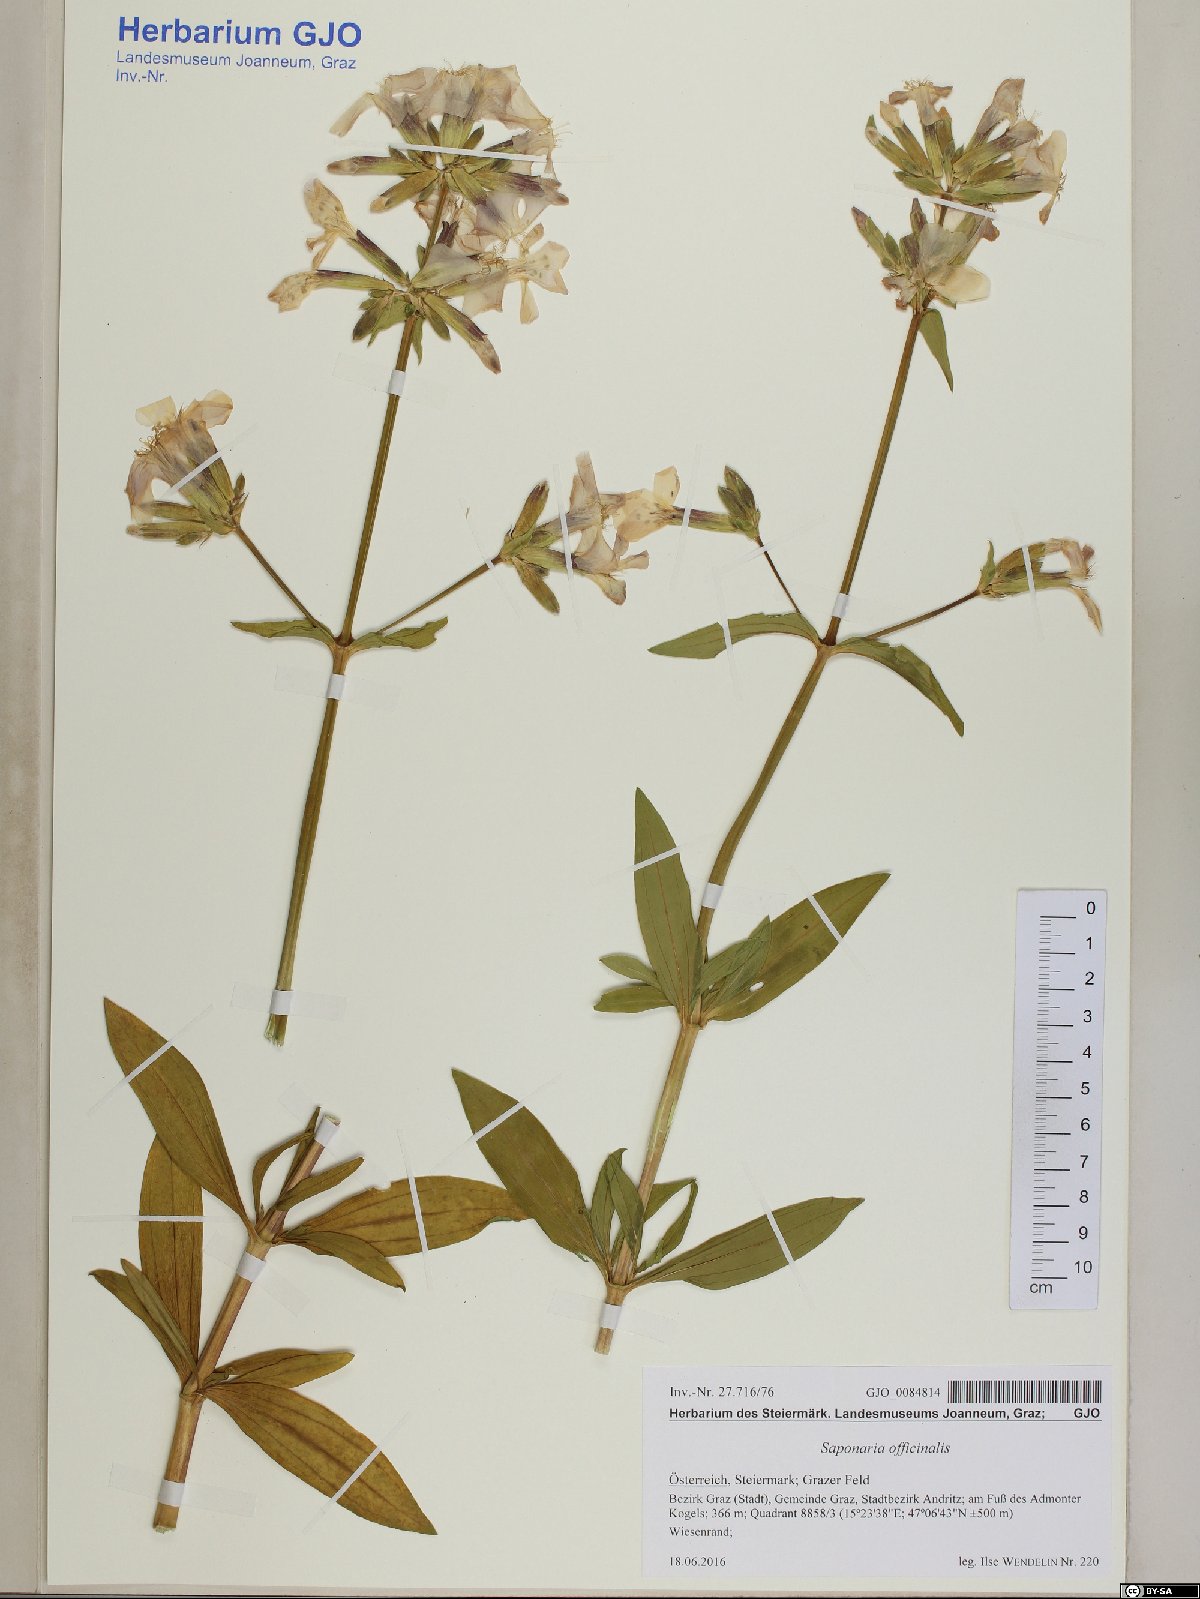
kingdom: Plantae
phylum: Tracheophyta
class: Magnoliopsida
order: Caryophyllales
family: Caryophyllaceae
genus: Saponaria
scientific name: Saponaria officinalis
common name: Soapwort
